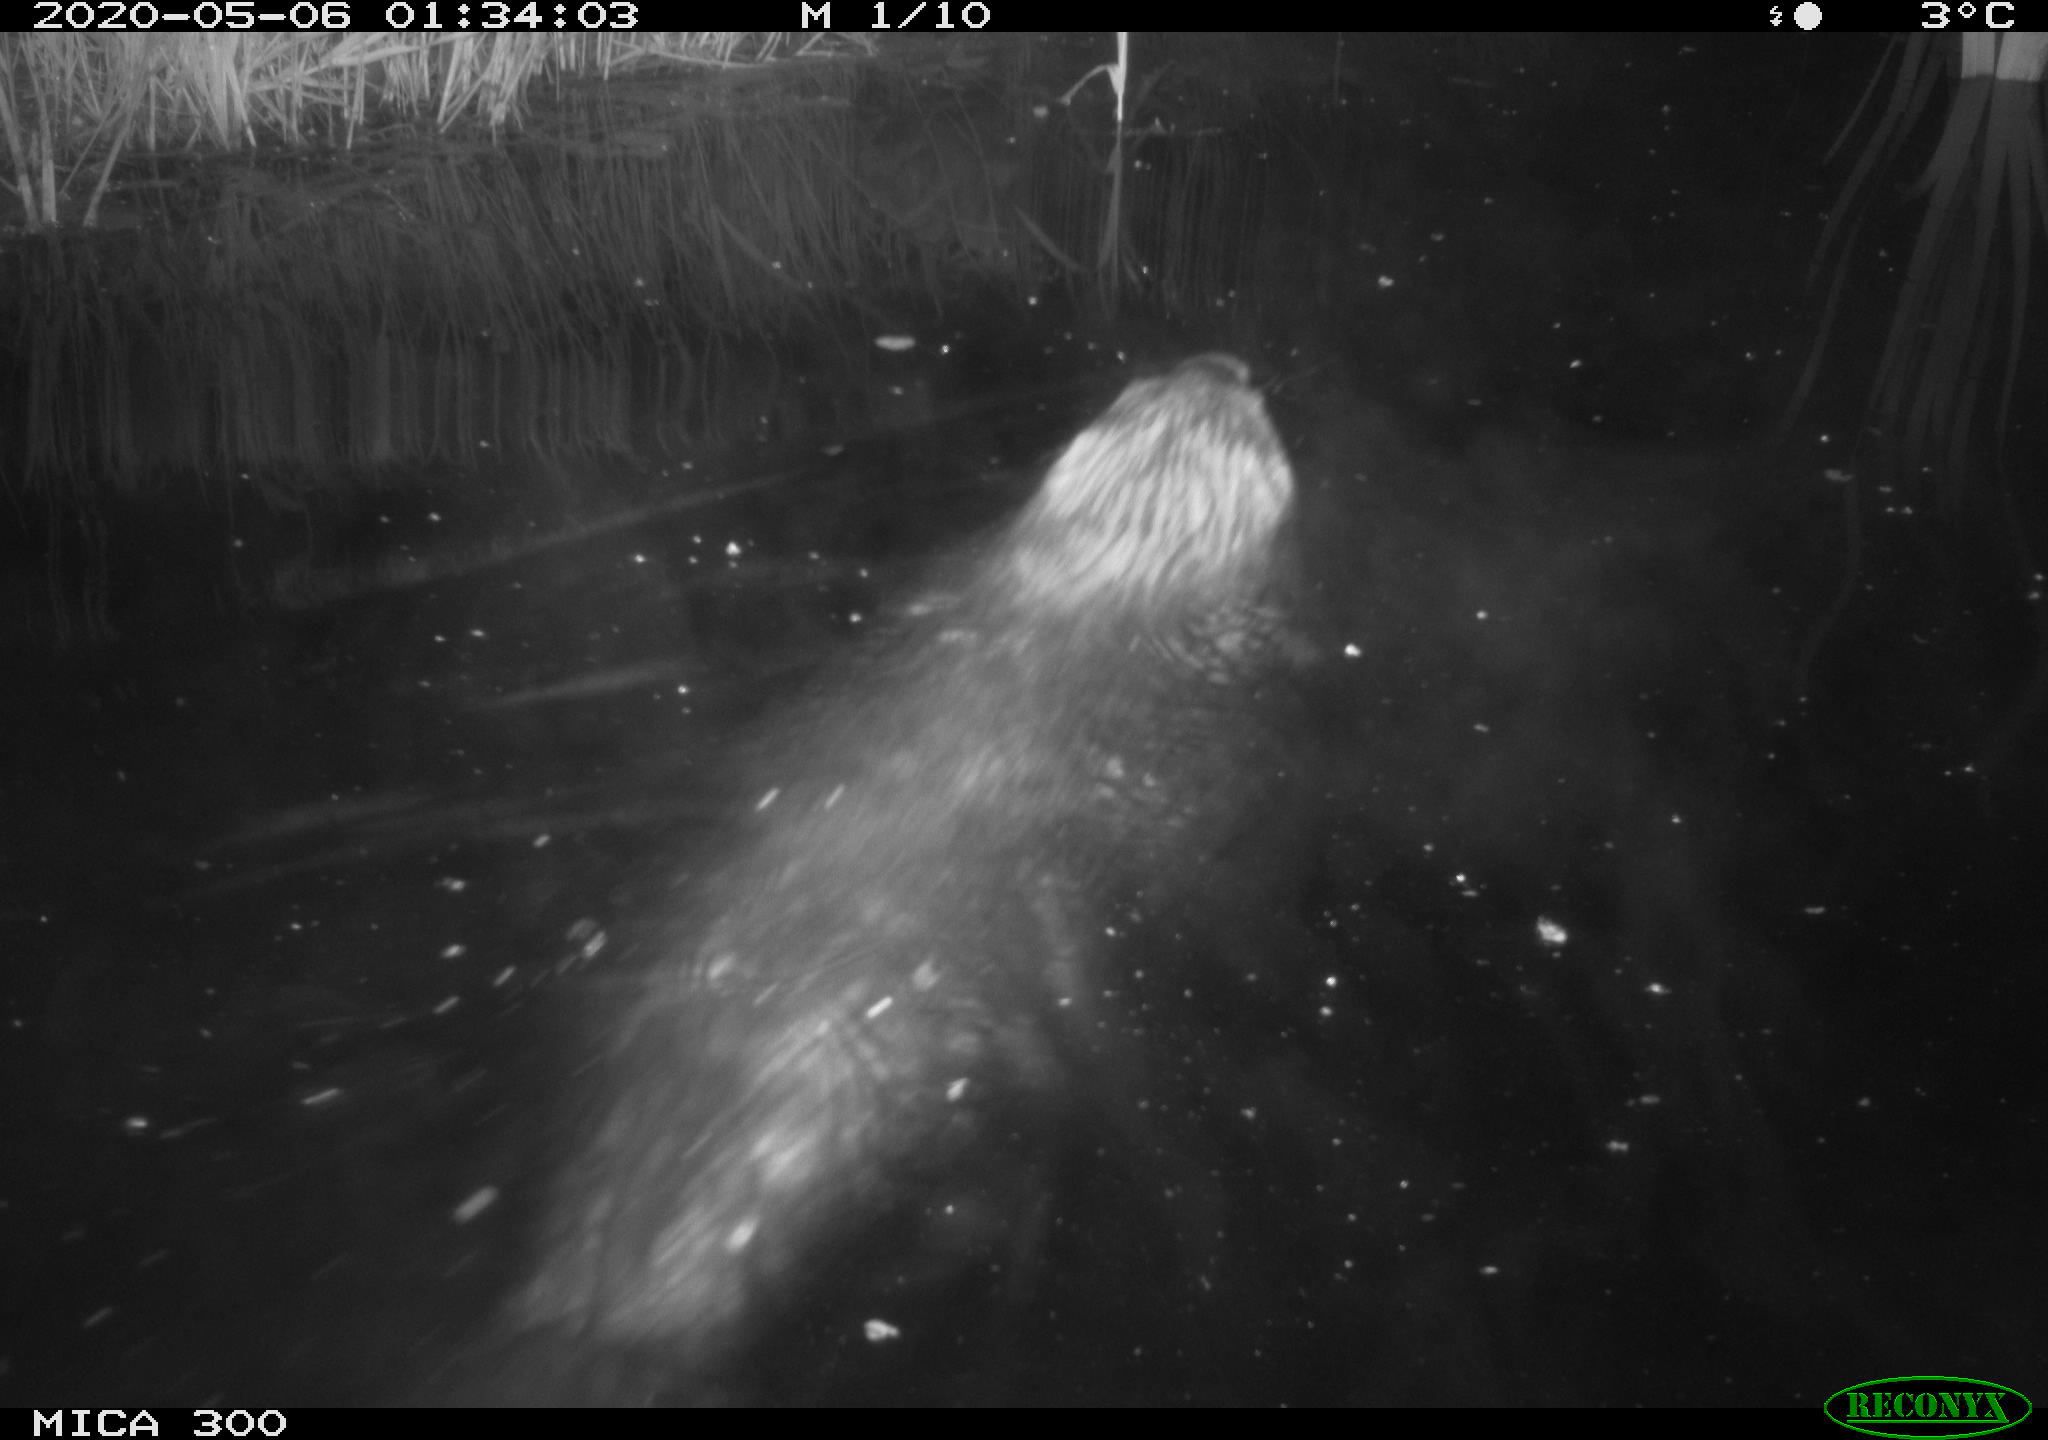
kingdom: Animalia
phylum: Chordata
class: Mammalia
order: Rodentia
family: Castoridae
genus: Castor
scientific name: Castor fiber
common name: Eurasian beaver
